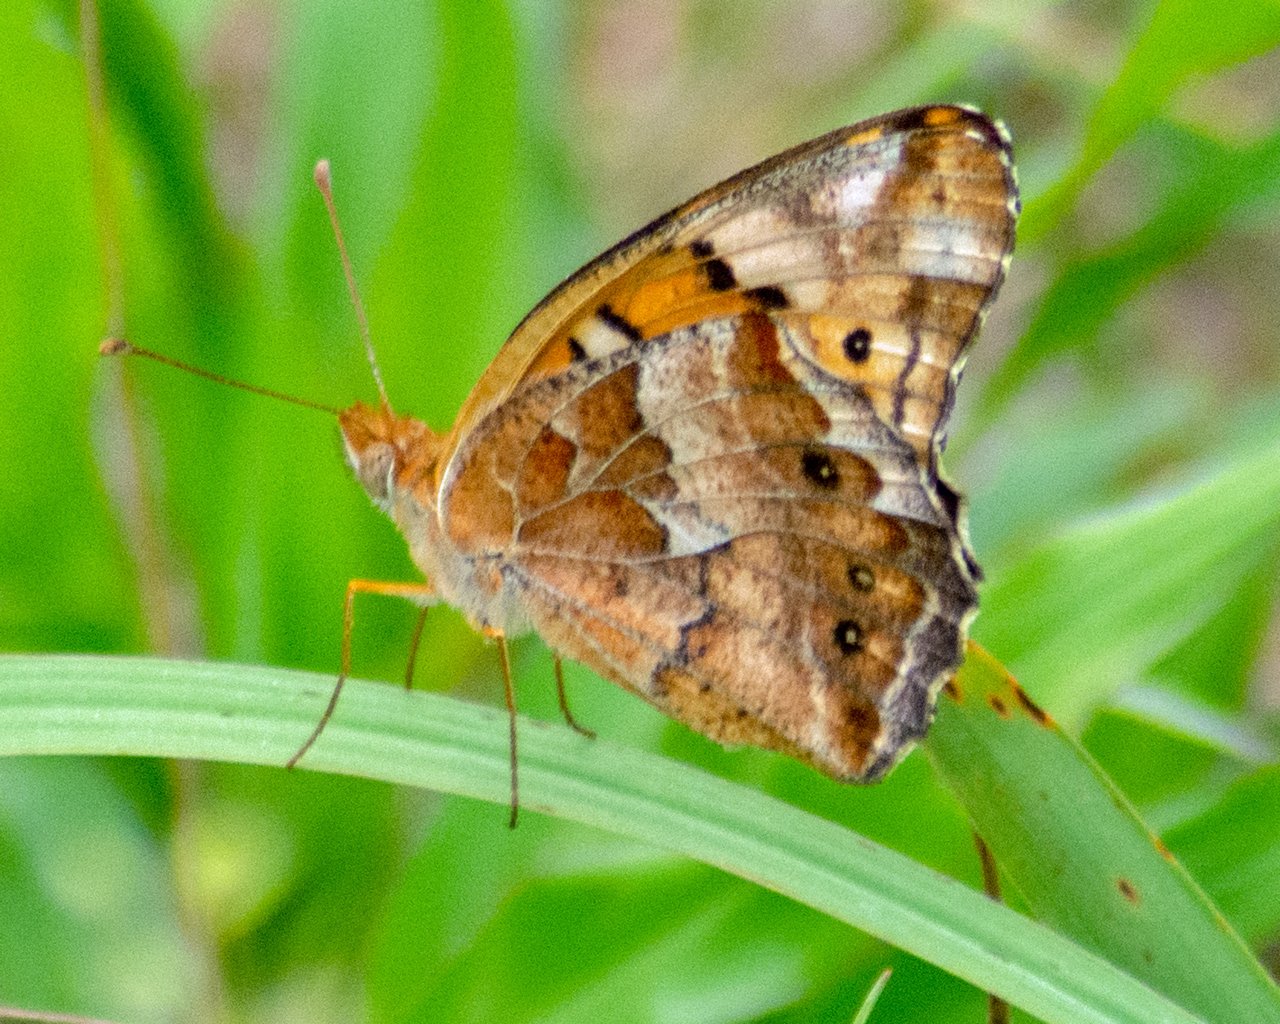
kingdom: Animalia
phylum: Arthropoda
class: Insecta
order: Lepidoptera
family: Nymphalidae
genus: Euptoieta
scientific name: Euptoieta claudia
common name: Variegated Fritillary
